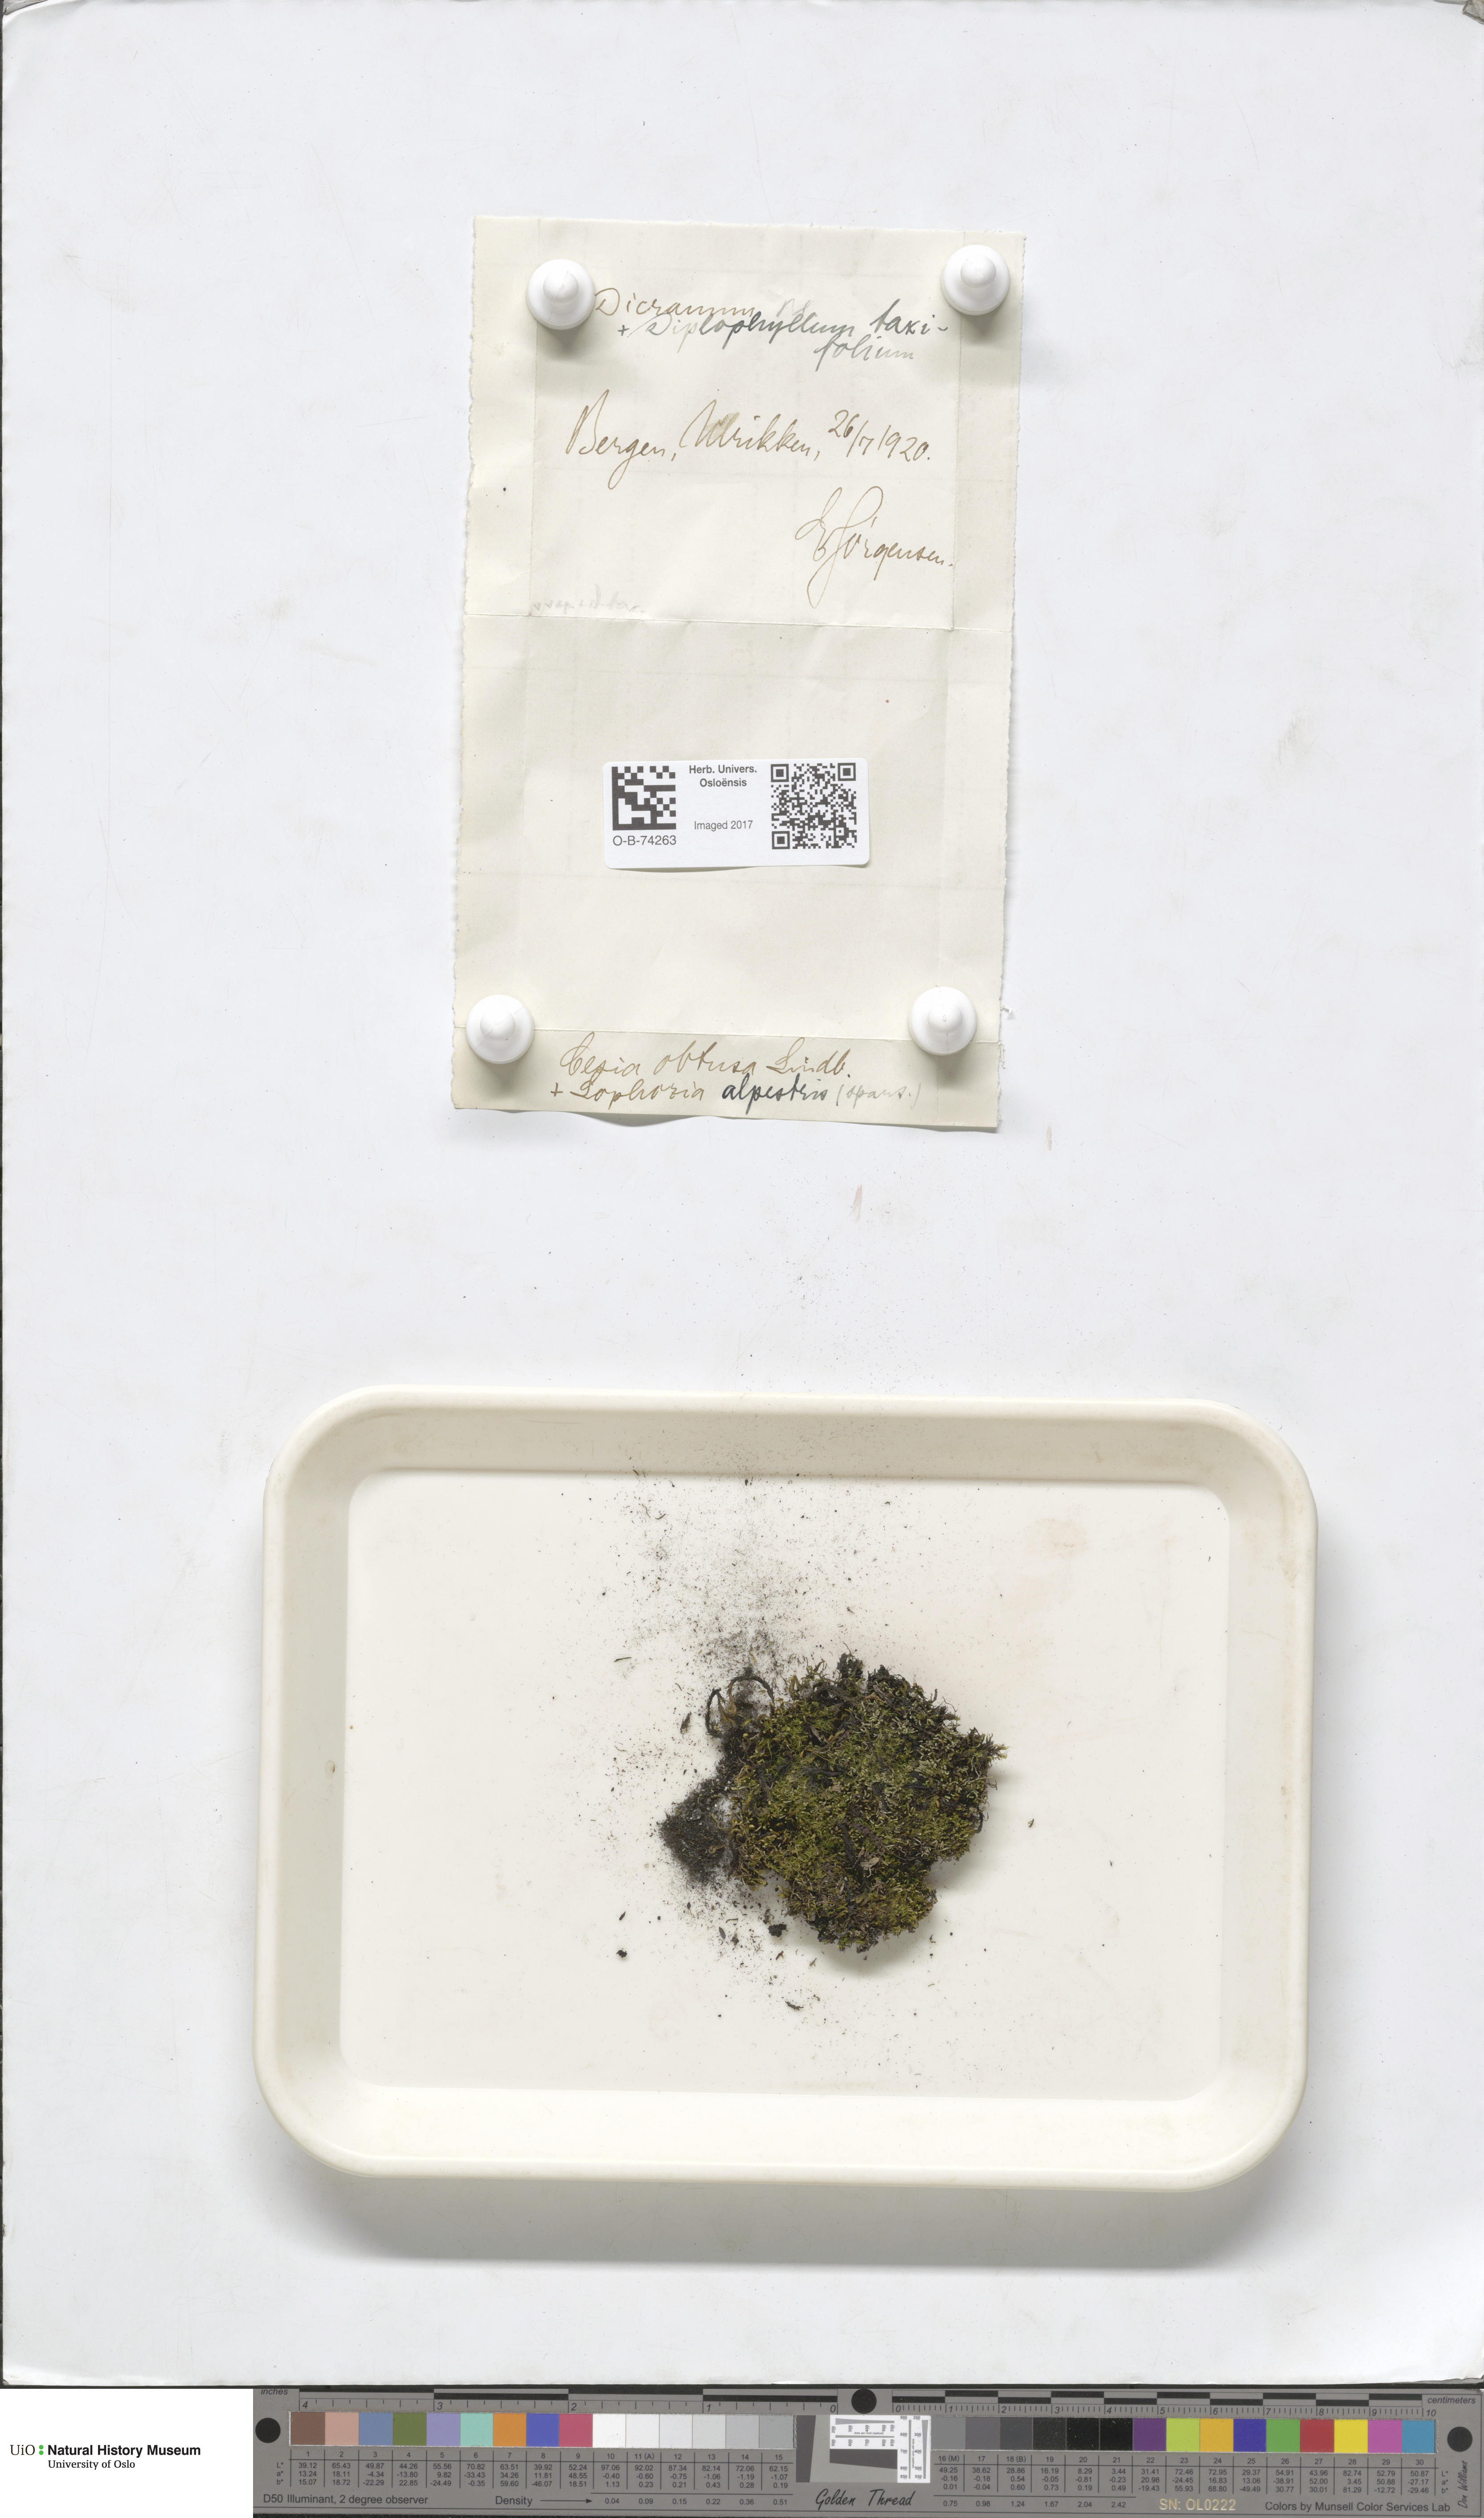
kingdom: Plantae
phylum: Marchantiophyta
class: Jungermanniopsida
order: Jungermanniales
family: Gymnomitriaceae
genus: Gymnomitrion
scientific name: Gymnomitrion obtusum
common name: White frostwort
